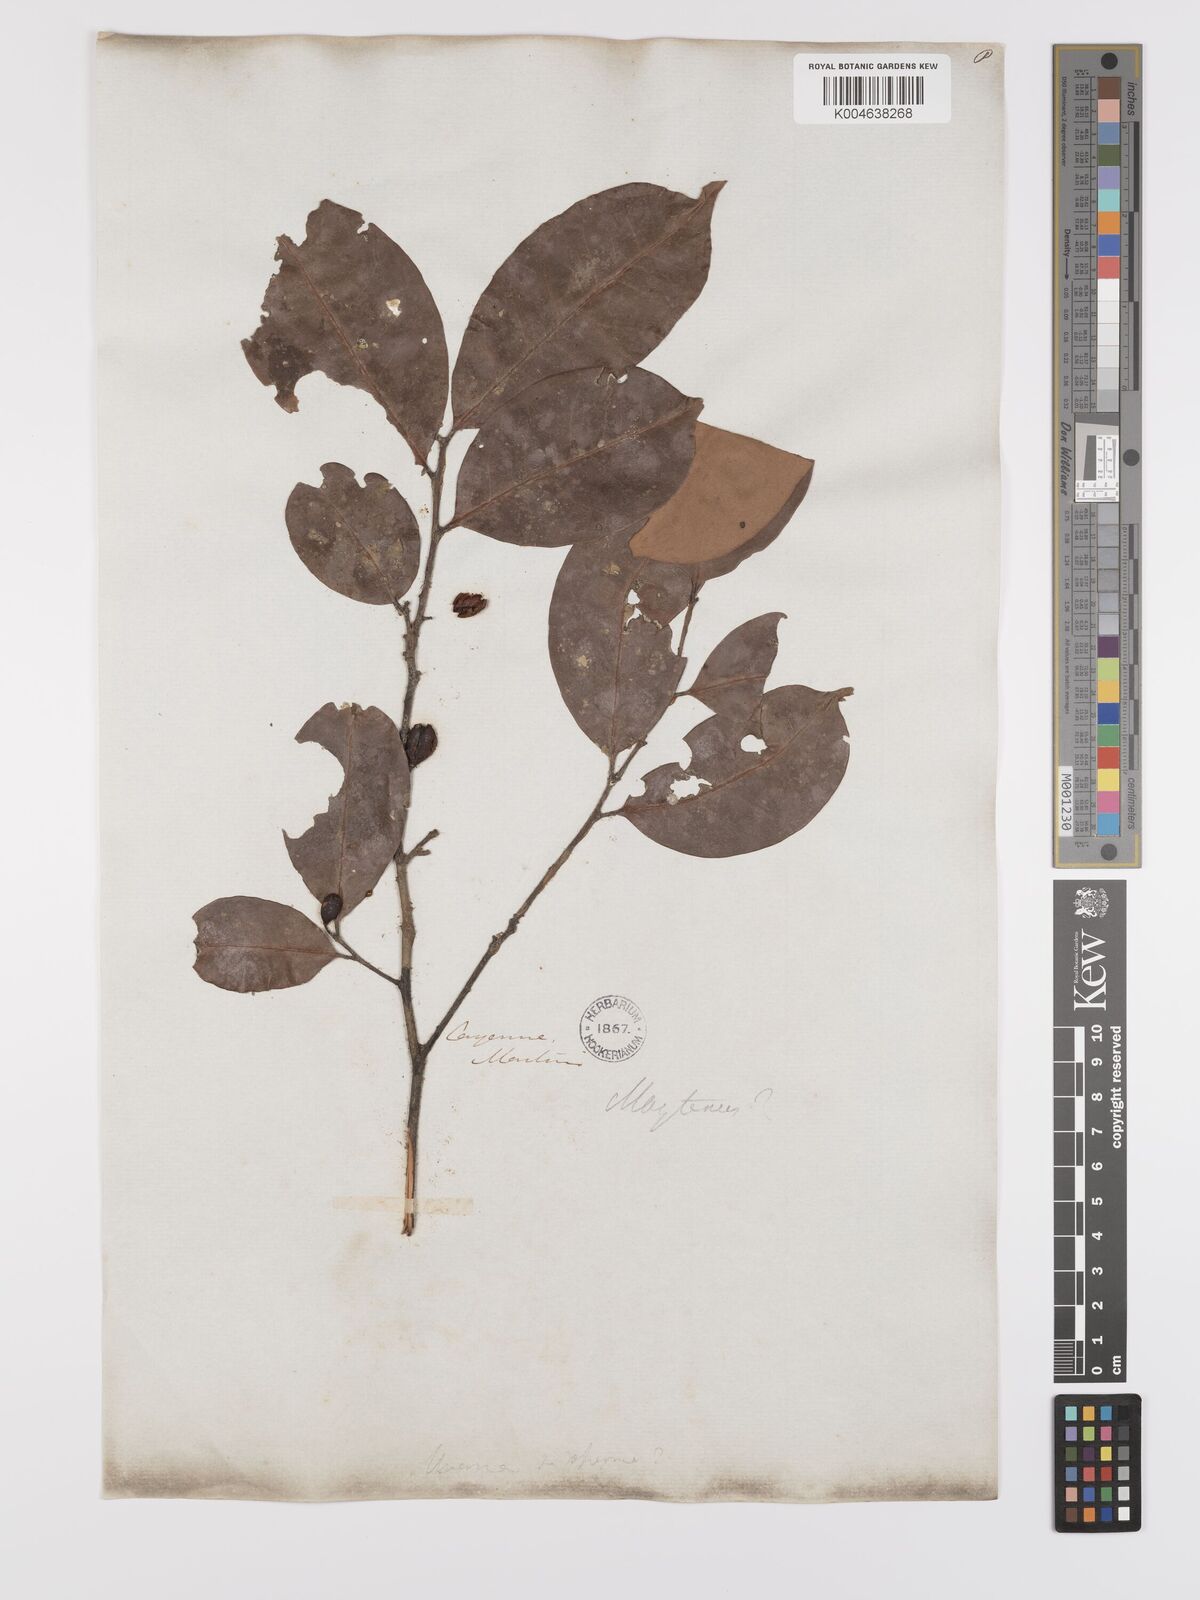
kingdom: Plantae
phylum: Tracheophyta
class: Magnoliopsida
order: Celastrales
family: Celastraceae
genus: Maytenus
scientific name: Maytenus
